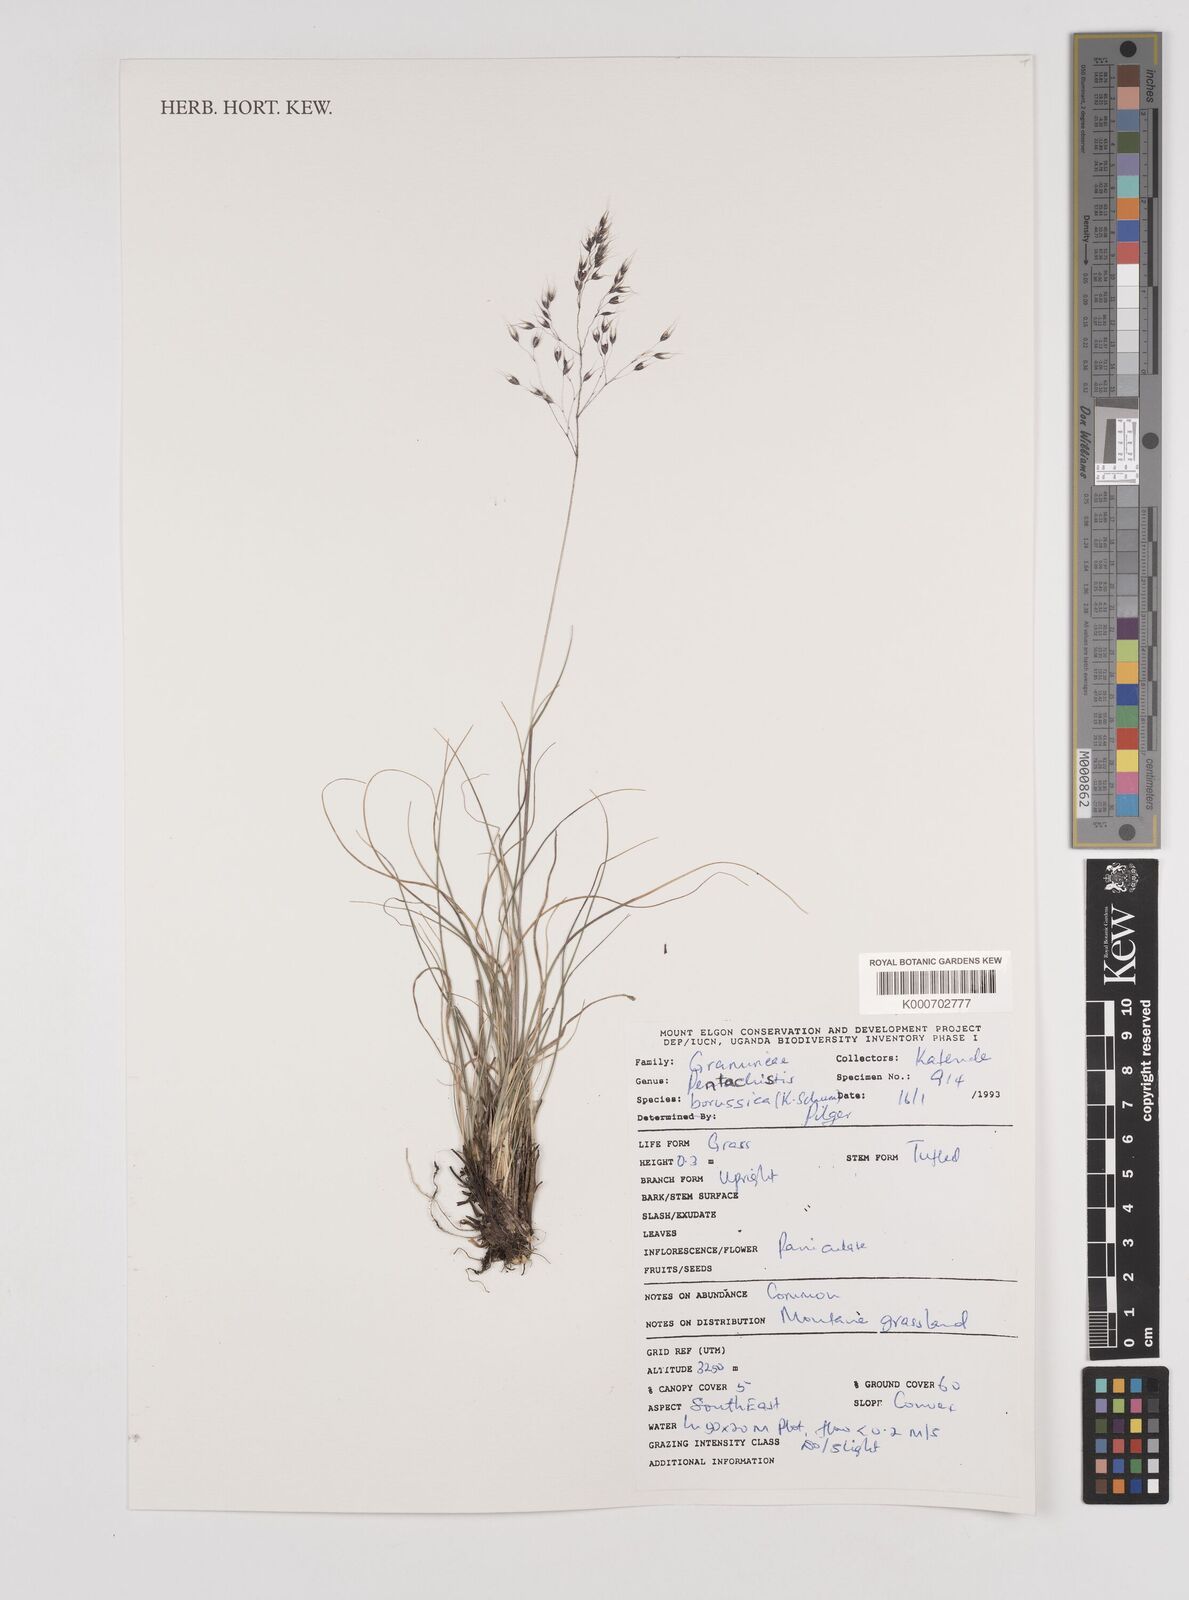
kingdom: Plantae
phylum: Tracheophyta
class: Liliopsida
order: Poales
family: Poaceae
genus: Pentameris
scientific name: Pentameris borussica
